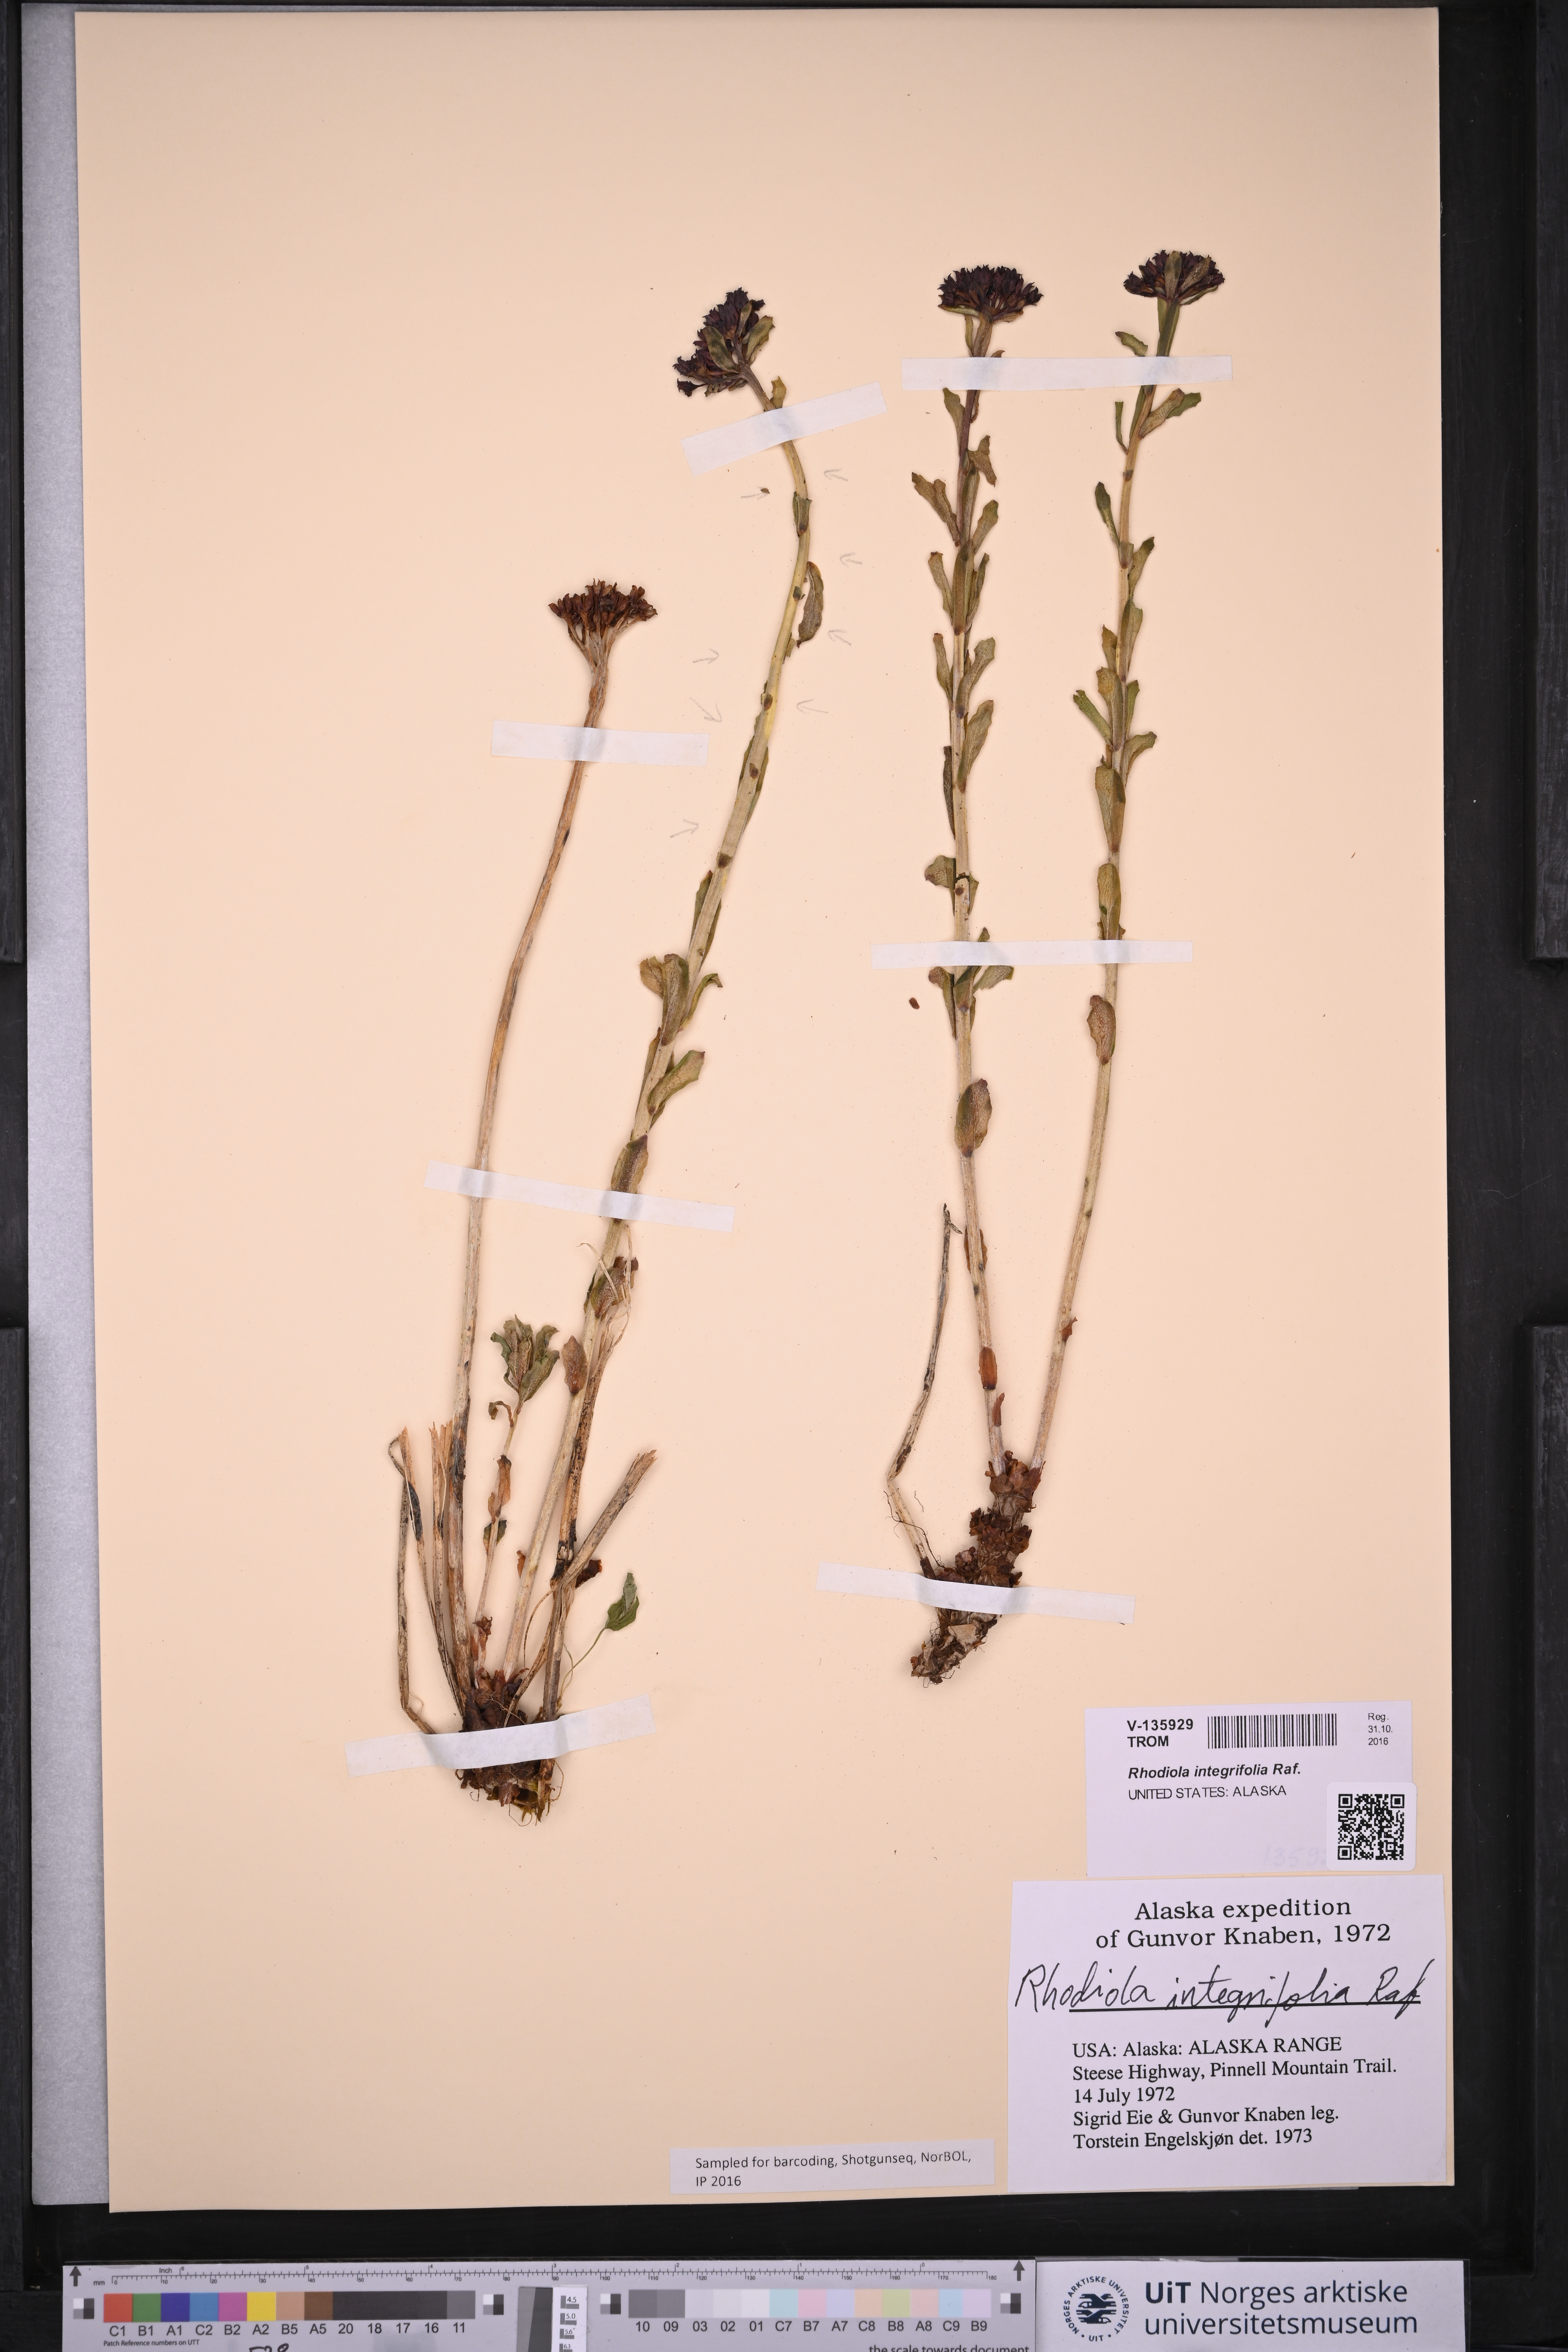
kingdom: Plantae
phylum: Tracheophyta
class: Magnoliopsida
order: Saxifragales
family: Crassulaceae
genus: Rhodiola
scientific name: Rhodiola integrifolia
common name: Western roseroot
